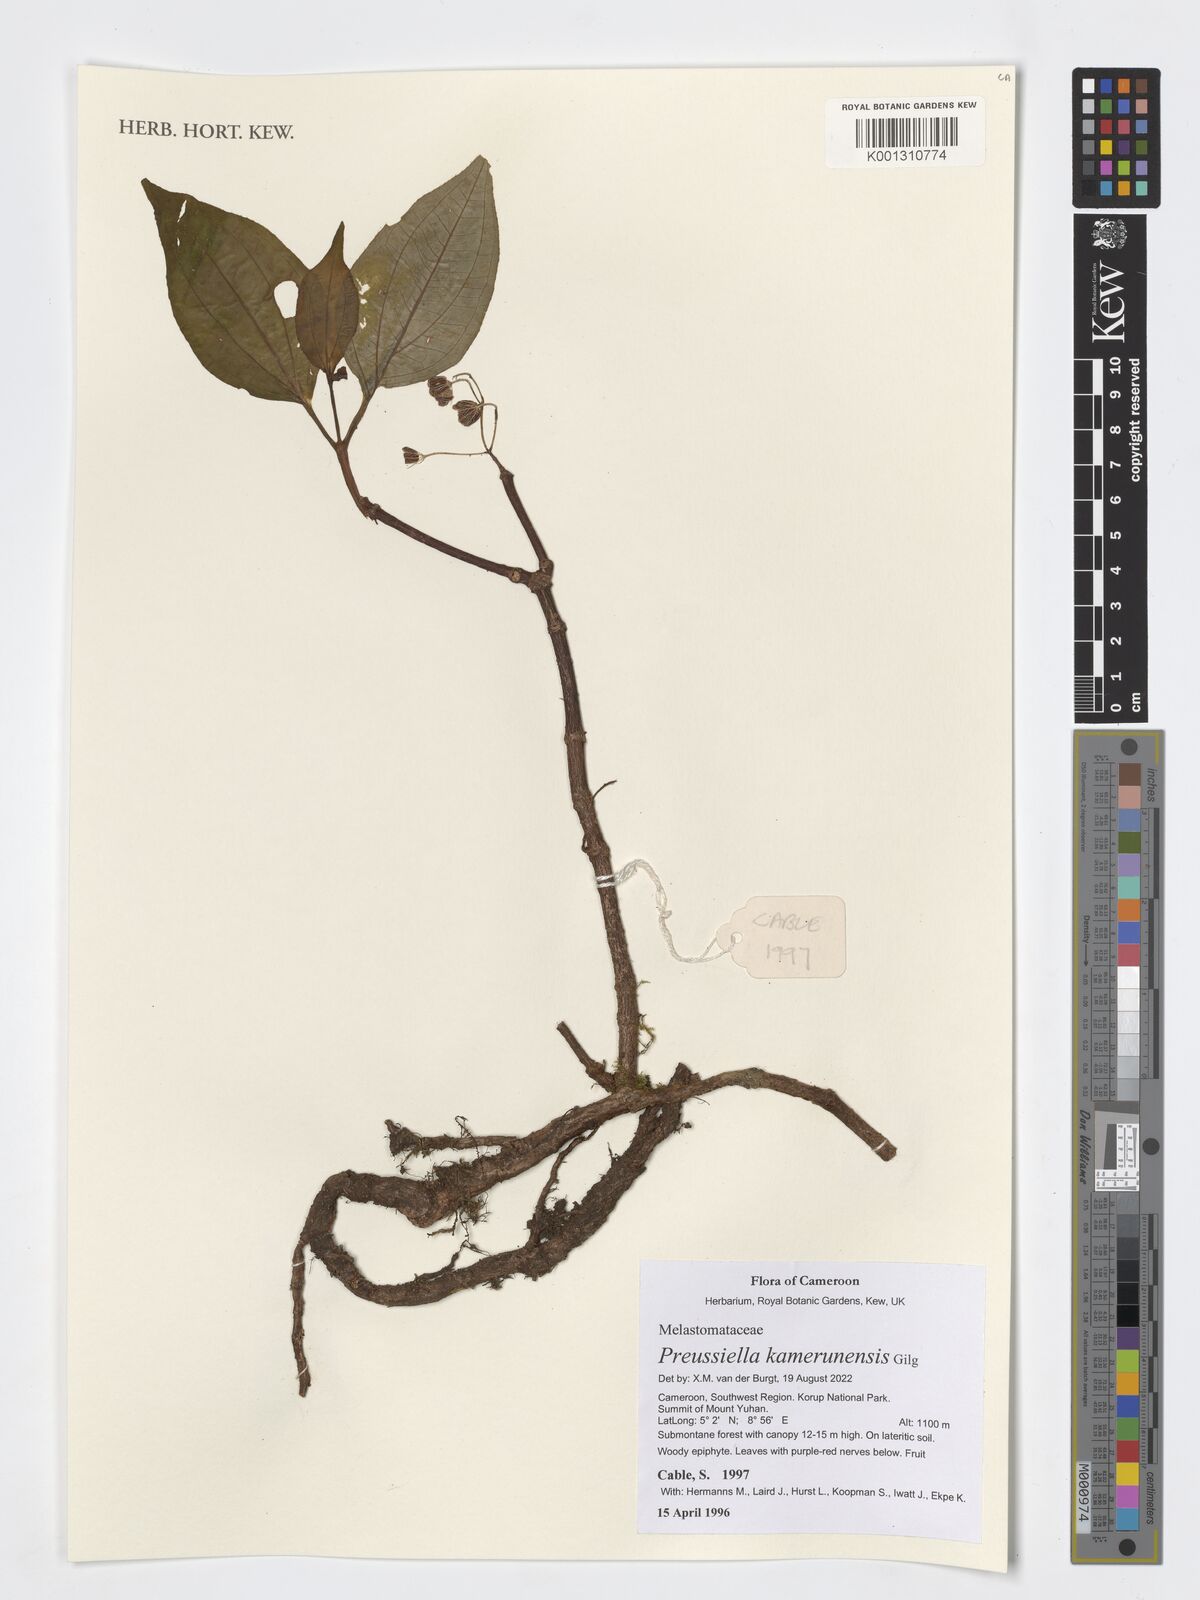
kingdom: Plantae
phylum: Tracheophyta
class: Magnoliopsida
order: Myrtales
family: Melastomataceae
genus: Preussiella
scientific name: Preussiella kamerunensis
